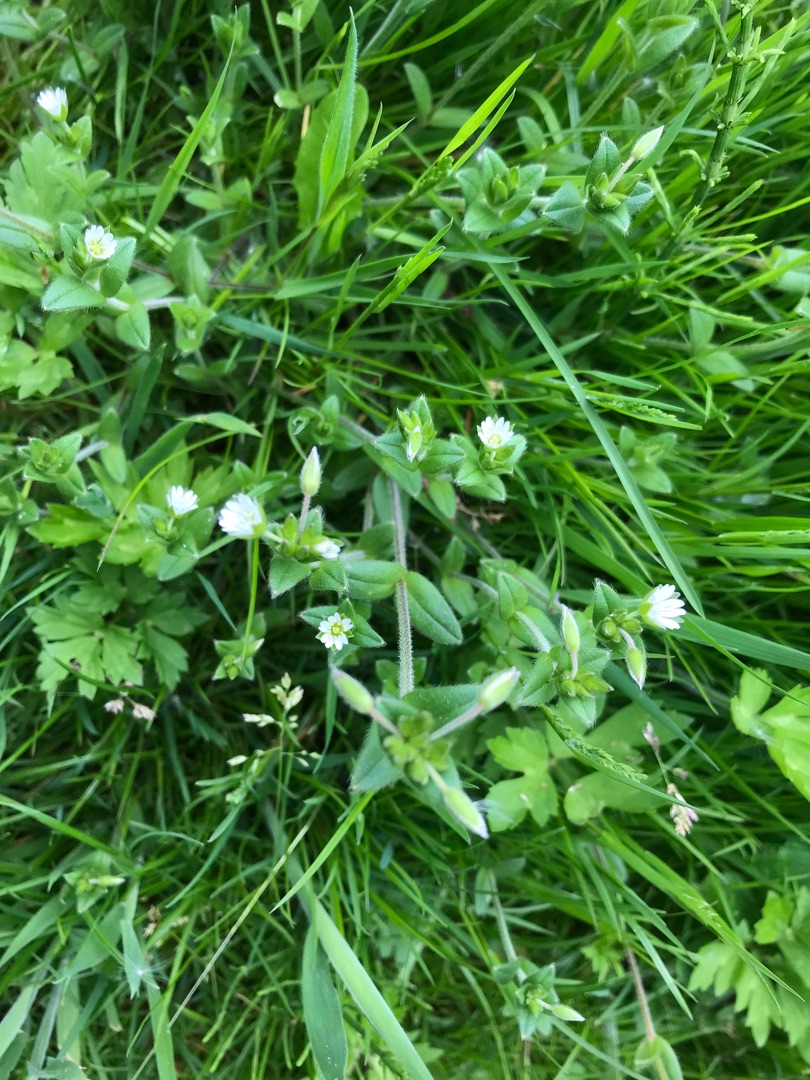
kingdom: Plantae
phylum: Tracheophyta
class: Magnoliopsida
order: Caryophyllales
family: Caryophyllaceae
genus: Cerastium
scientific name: Cerastium fontanum
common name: Almindelig hønsetarm
